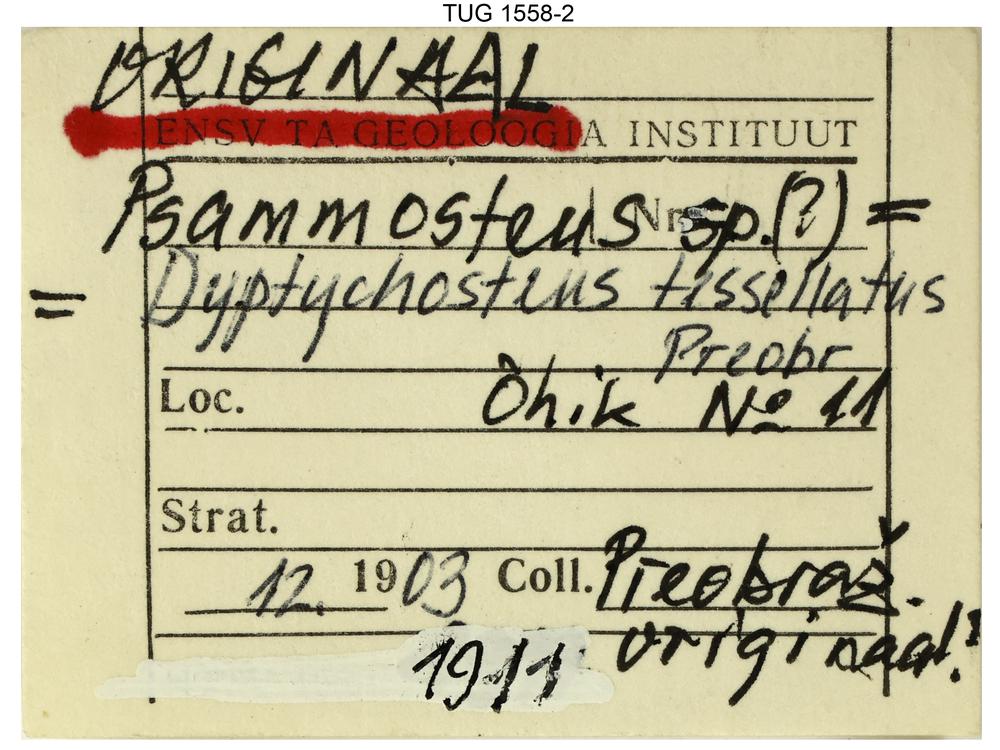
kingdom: Animalia
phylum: Chordata
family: Drepanaspididae
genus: Psammosteus
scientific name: Psammosteus
